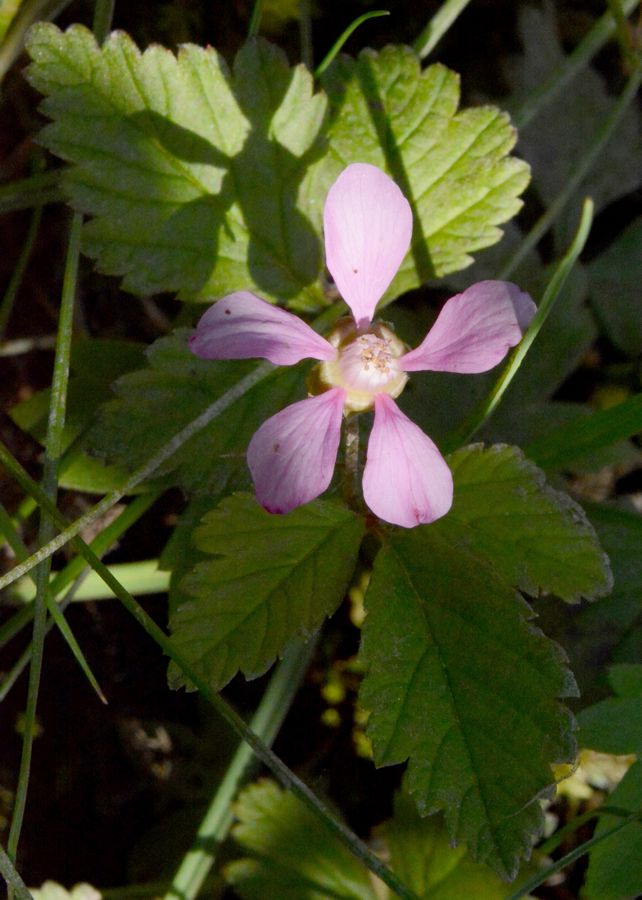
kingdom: Plantae
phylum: Tracheophyta
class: Magnoliopsida
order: Rosales
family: Rosaceae
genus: Rubus
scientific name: Rubus arcticus
